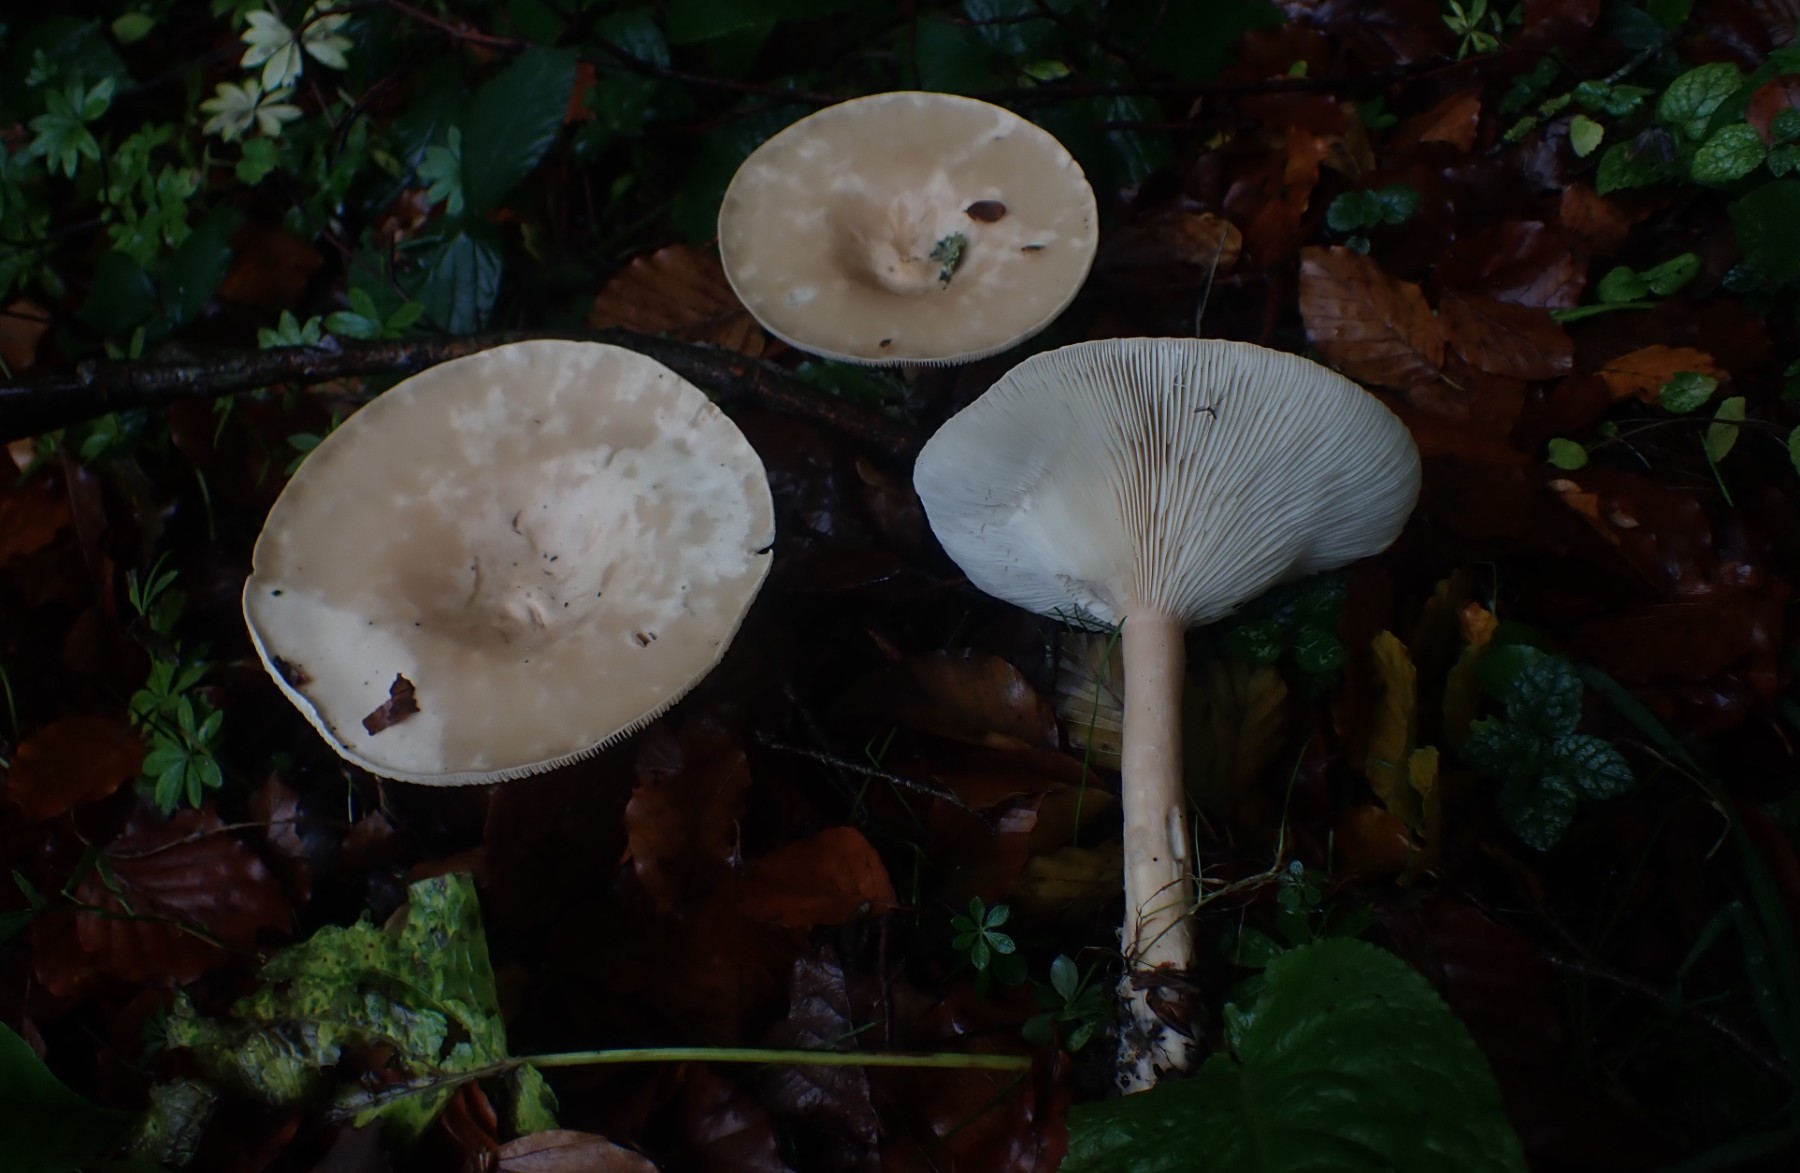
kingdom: Fungi
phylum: Basidiomycota
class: Agaricomycetes
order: Agaricales
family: Tricholomataceae
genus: Infundibulicybe
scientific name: Infundibulicybe geotropa
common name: stor tragthat
